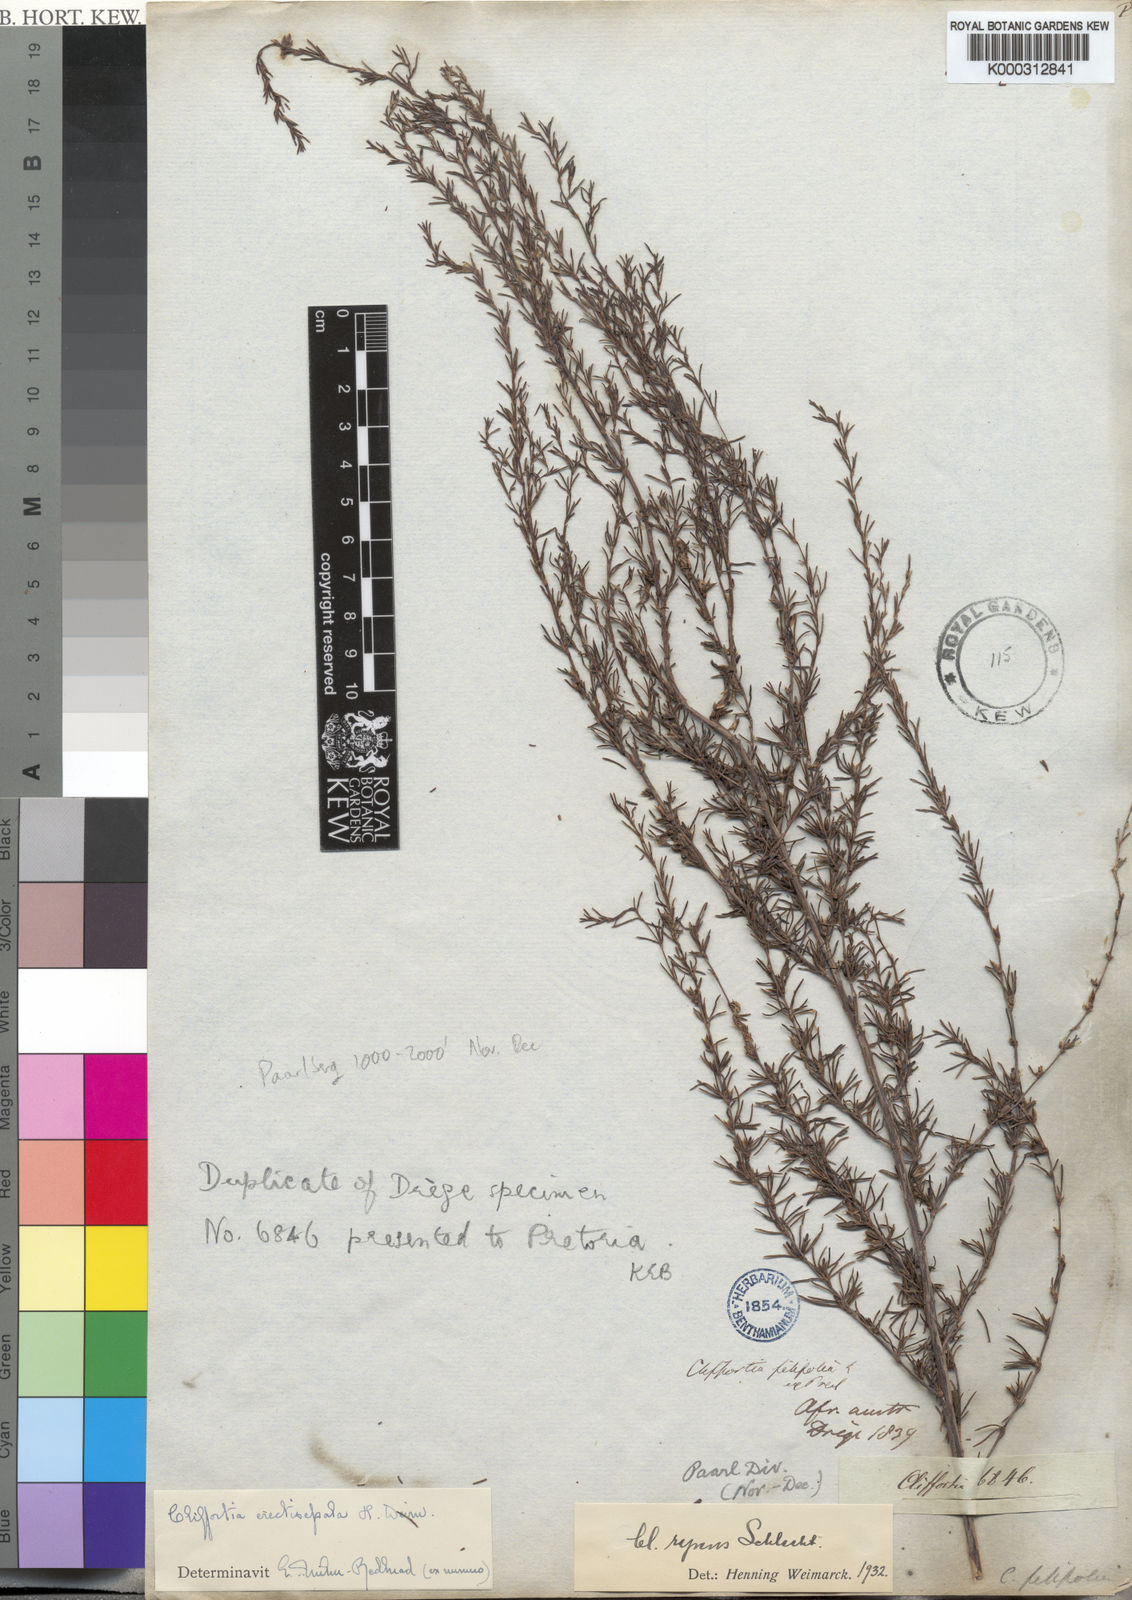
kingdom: Plantae
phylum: Tracheophyta
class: Magnoliopsida
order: Rosales
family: Rosaceae
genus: Cliffortia
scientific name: Cliffortia erectisepala
